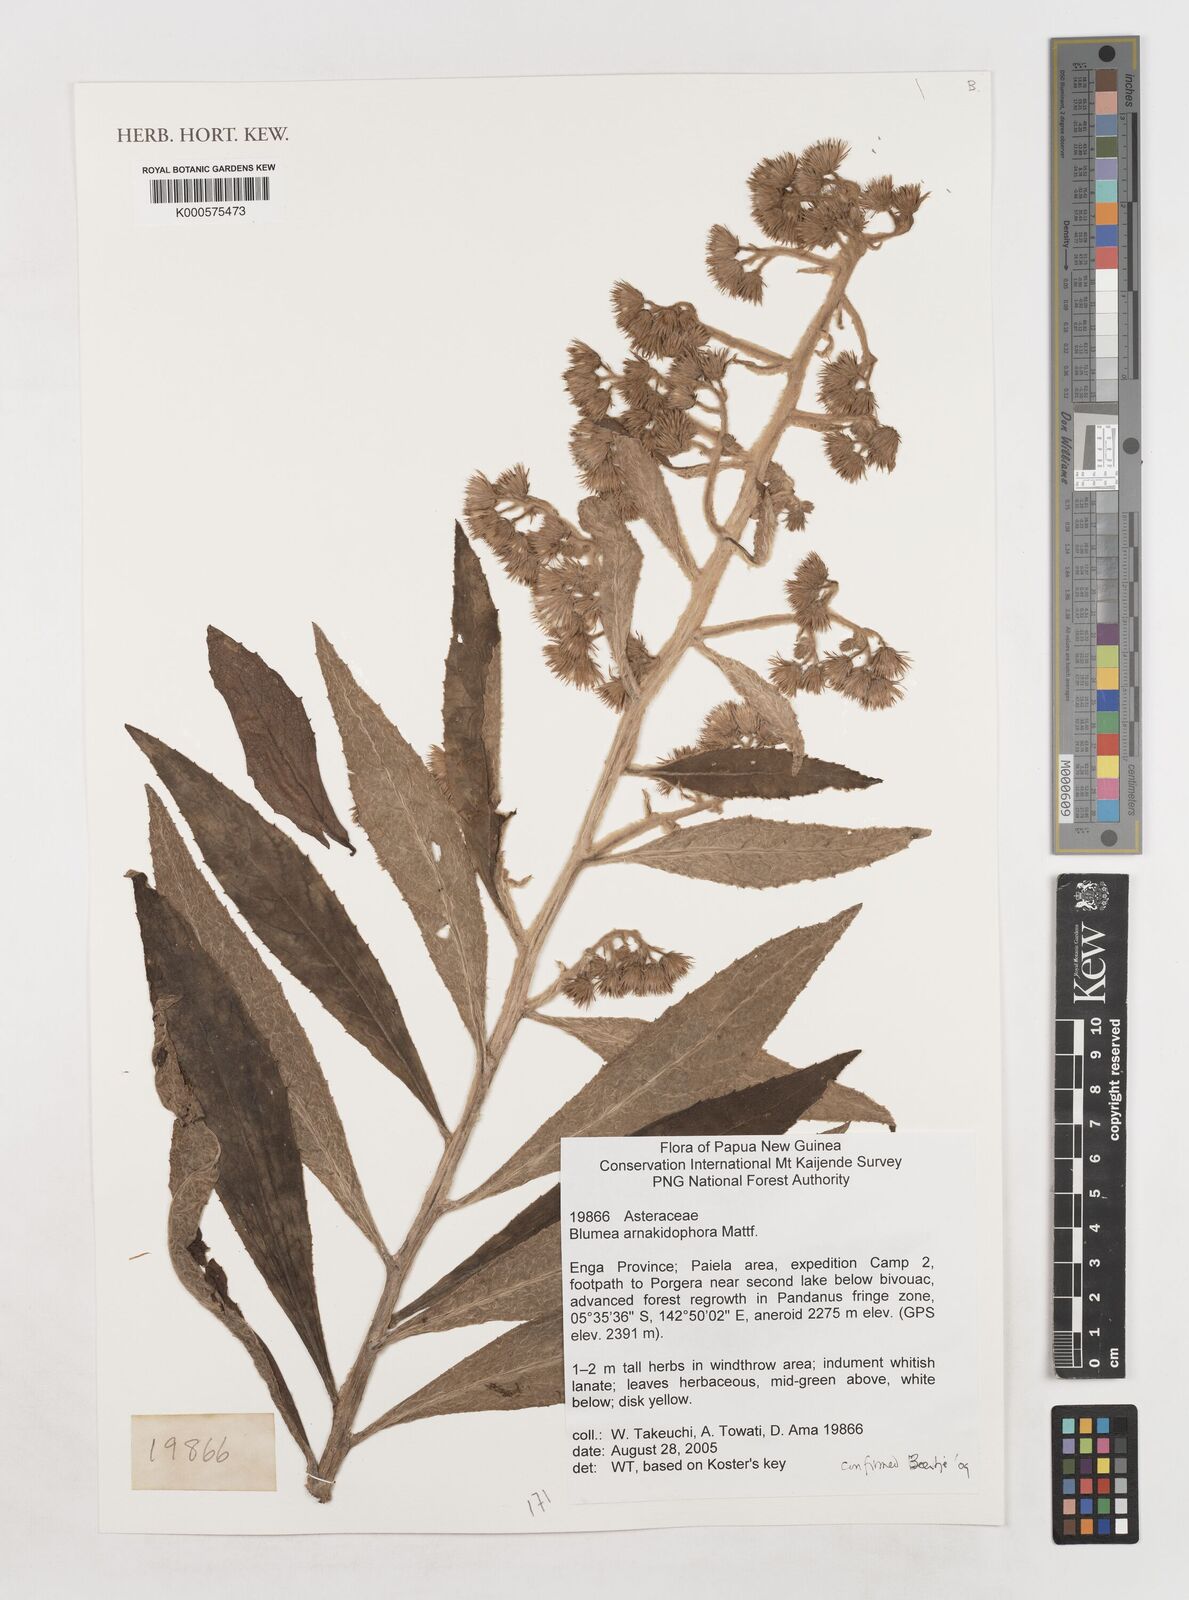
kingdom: Plantae
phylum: Tracheophyta
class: Magnoliopsida
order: Asterales
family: Asteraceae
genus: Blumea
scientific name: Blumea arnakidophora
